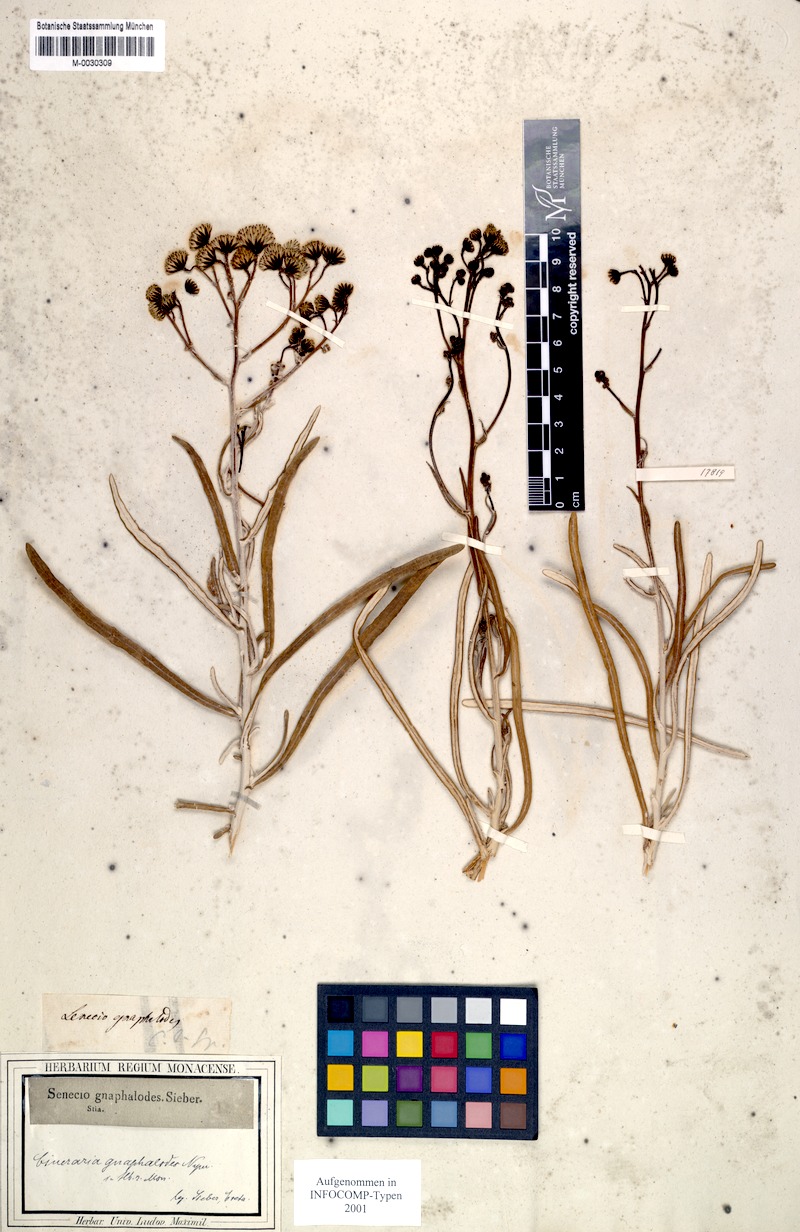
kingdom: Plantae
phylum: Tracheophyta
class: Magnoliopsida
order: Asterales
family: Asteraceae
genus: Jacobaea
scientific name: Jacobaea gnaphalioides
